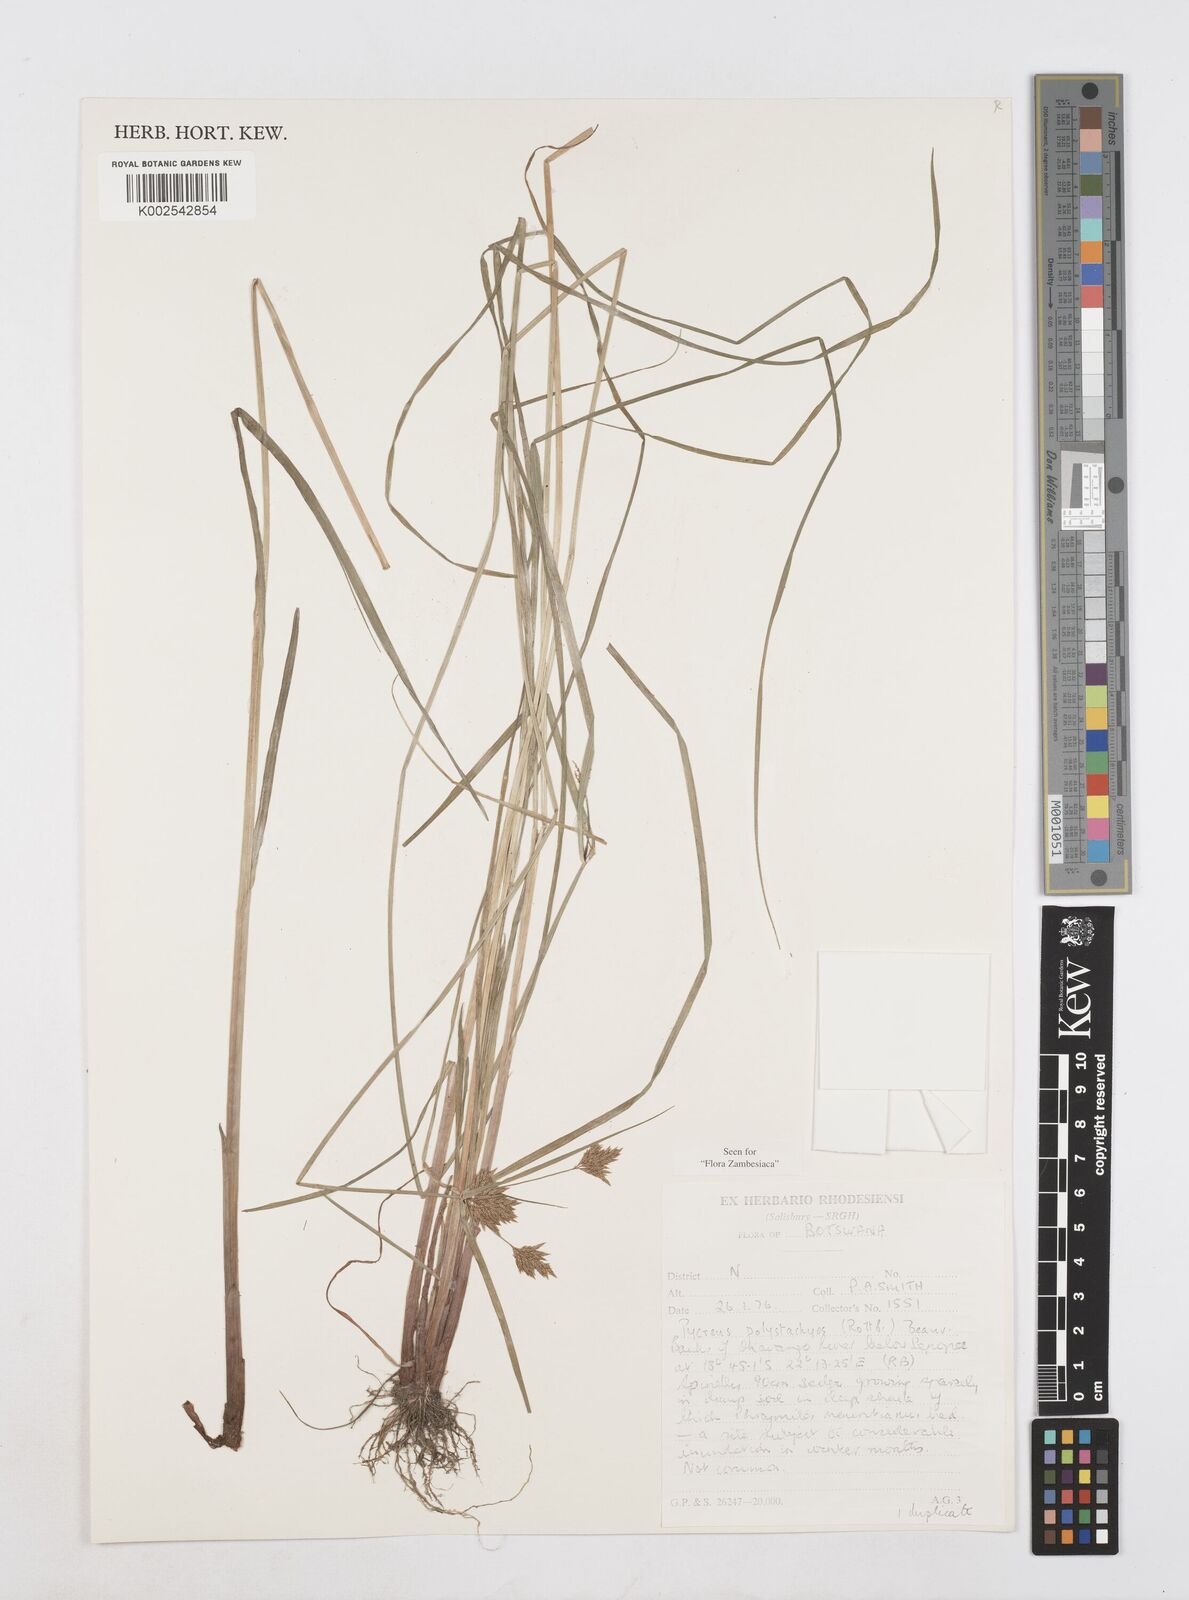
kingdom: Plantae
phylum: Tracheophyta
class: Liliopsida
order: Poales
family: Cyperaceae
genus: Cyperus
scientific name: Cyperus polystachyos
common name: Bunchy flat sedge
